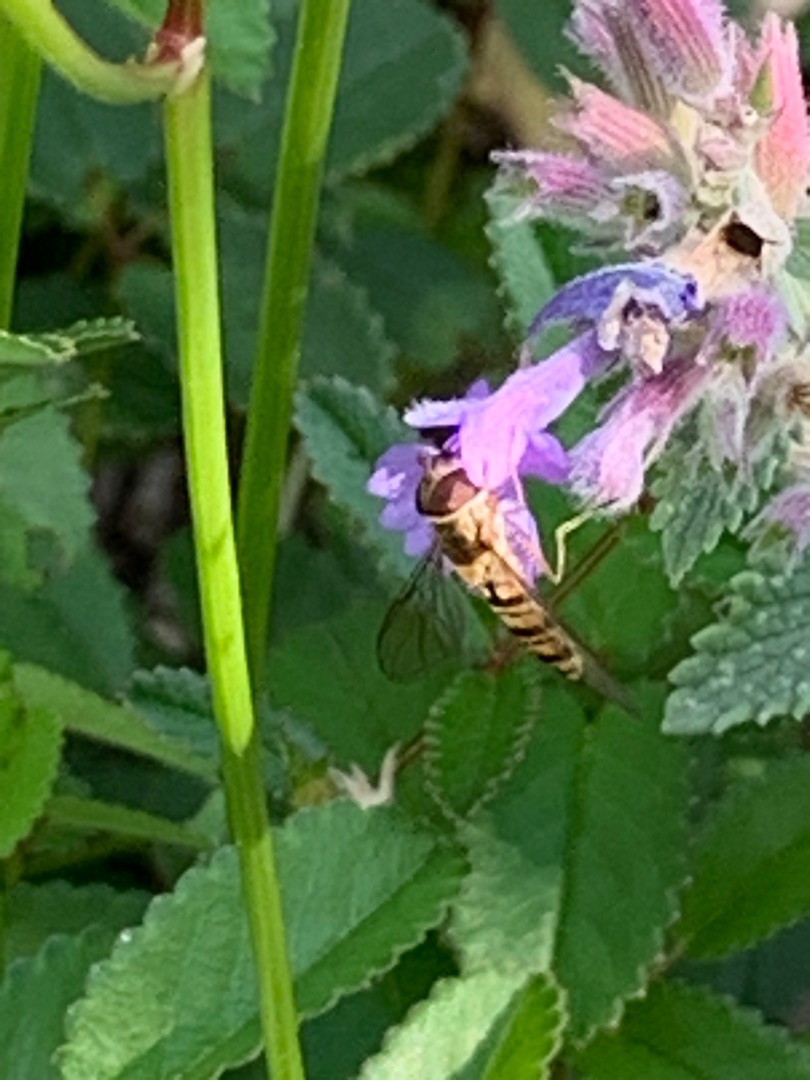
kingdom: Animalia
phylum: Arthropoda
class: Insecta
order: Diptera
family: Syrphidae
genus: Episyrphus
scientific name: Episyrphus balteatus
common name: Dobbeltbåndet svirreflue
